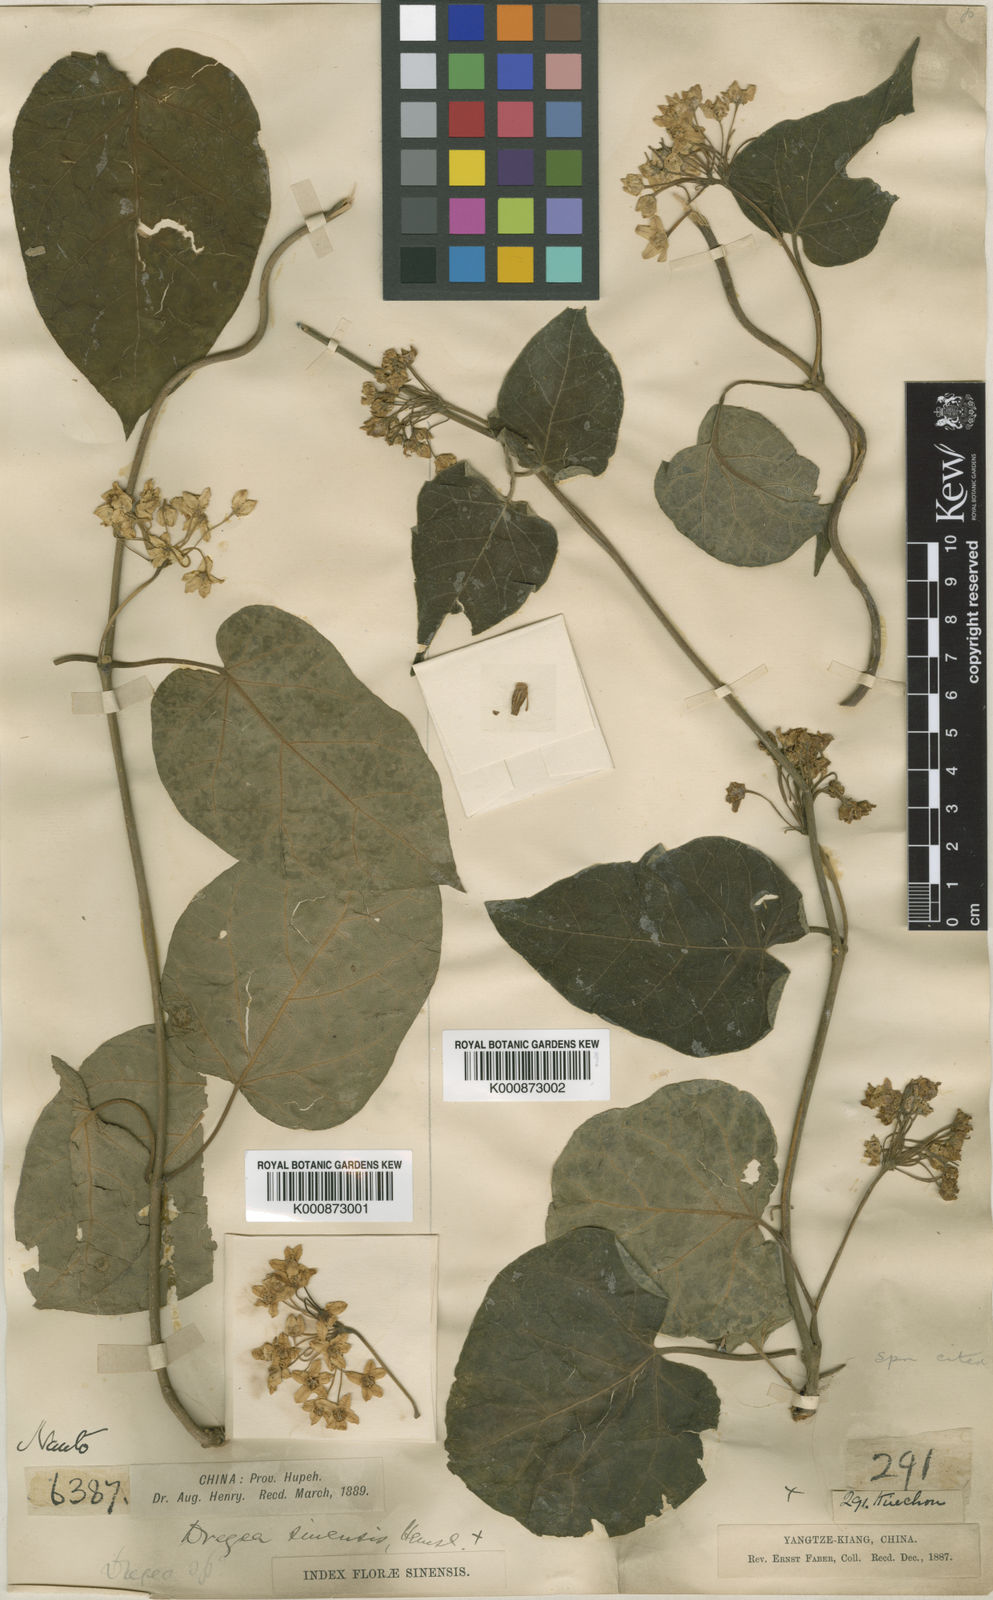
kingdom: Plantae
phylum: Tracheophyta
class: Magnoliopsida
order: Gentianales
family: Apocynaceae
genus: Stephanotis
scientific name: Stephanotis sinensis
